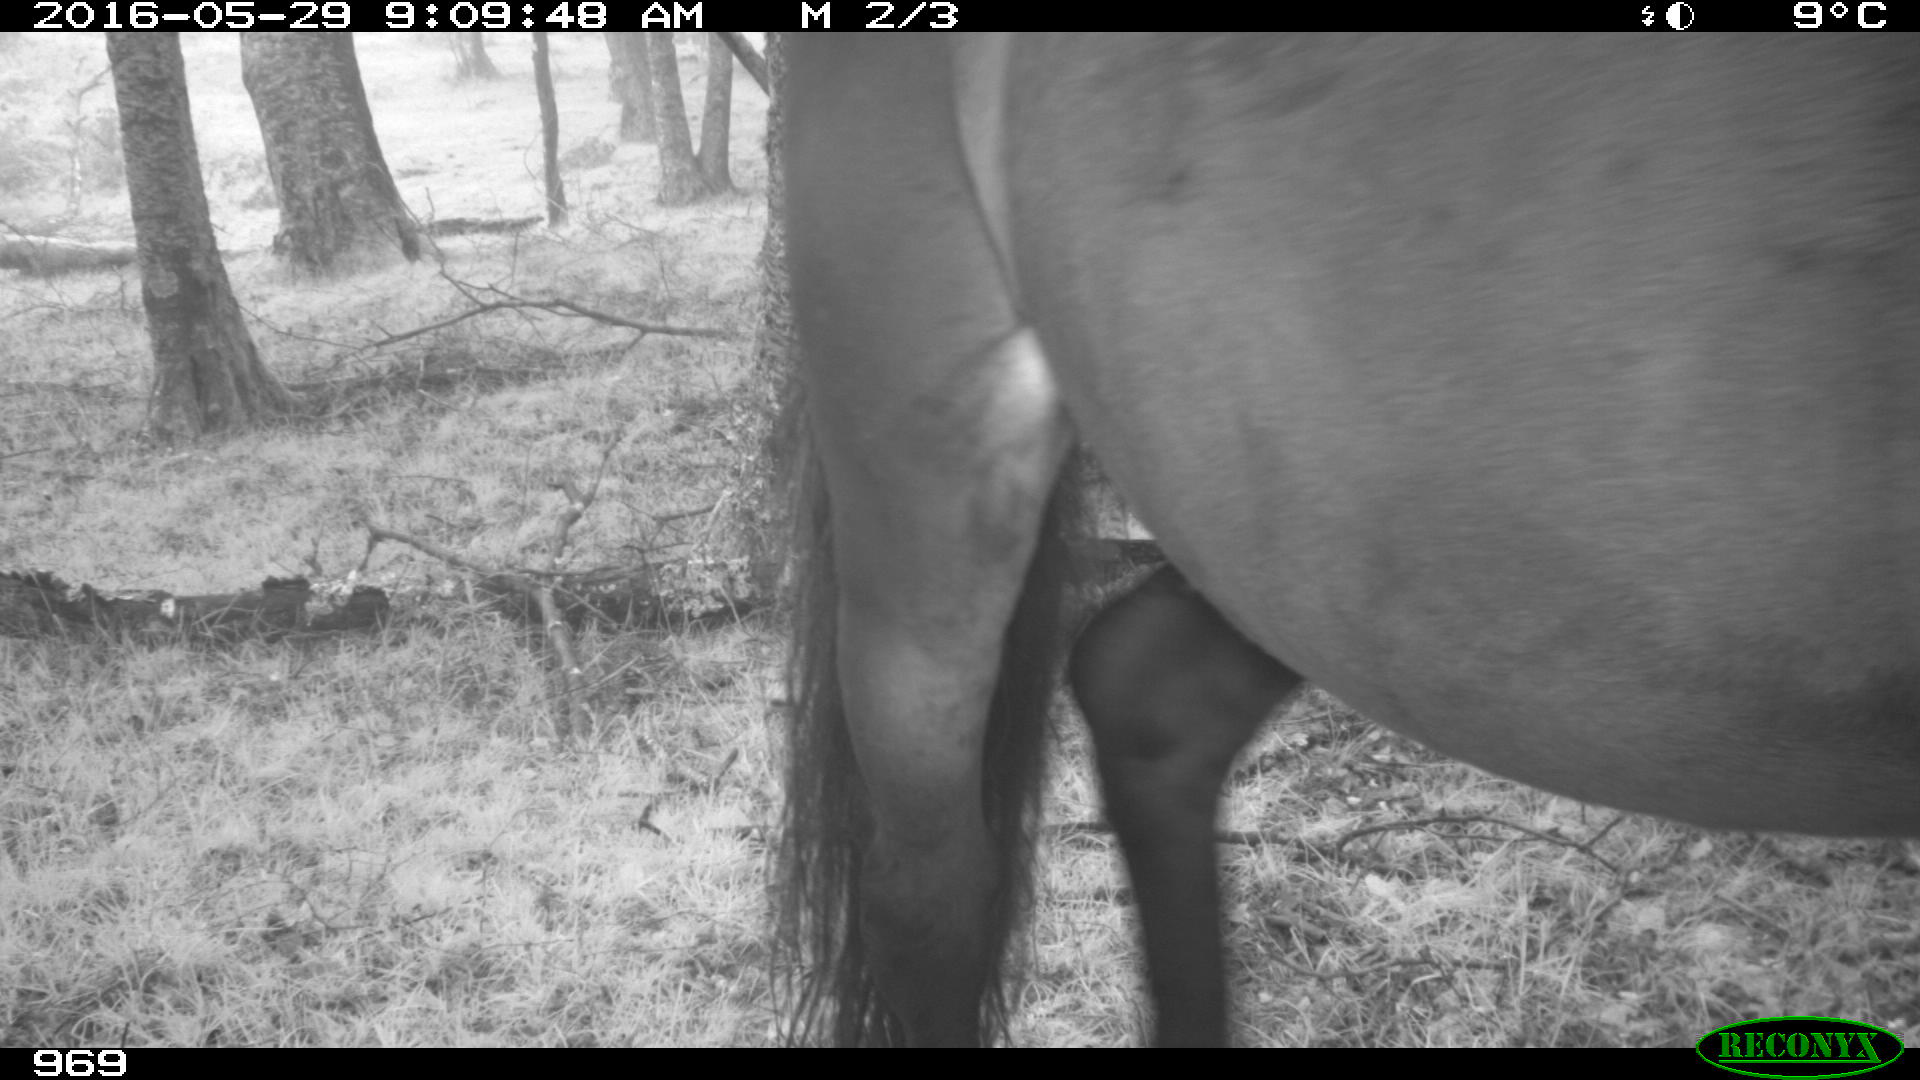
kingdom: Animalia
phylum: Chordata
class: Mammalia
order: Perissodactyla
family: Equidae
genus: Equus
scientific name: Equus caballus
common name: Horse
